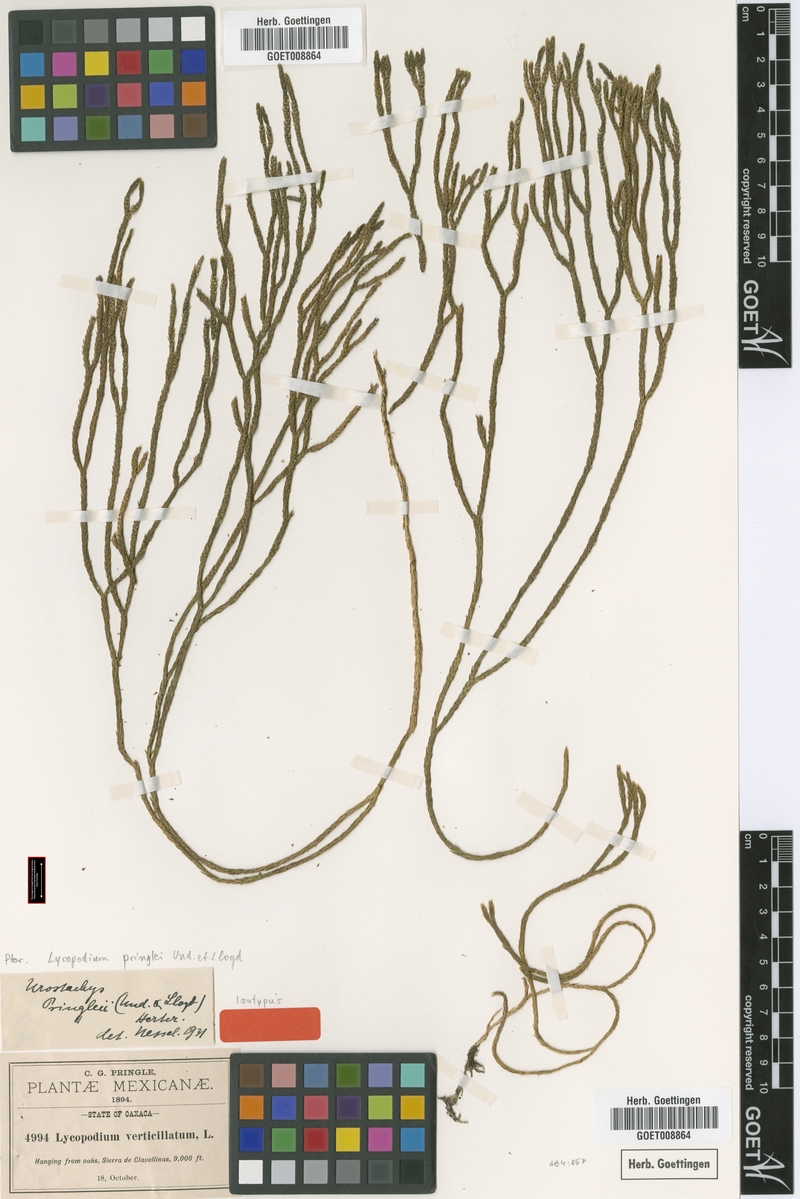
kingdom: Plantae
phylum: Tracheophyta
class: Lycopodiopsida
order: Lycopodiales
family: Lycopodiaceae
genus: Phlegmariurus
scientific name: Phlegmariurus pringlei
